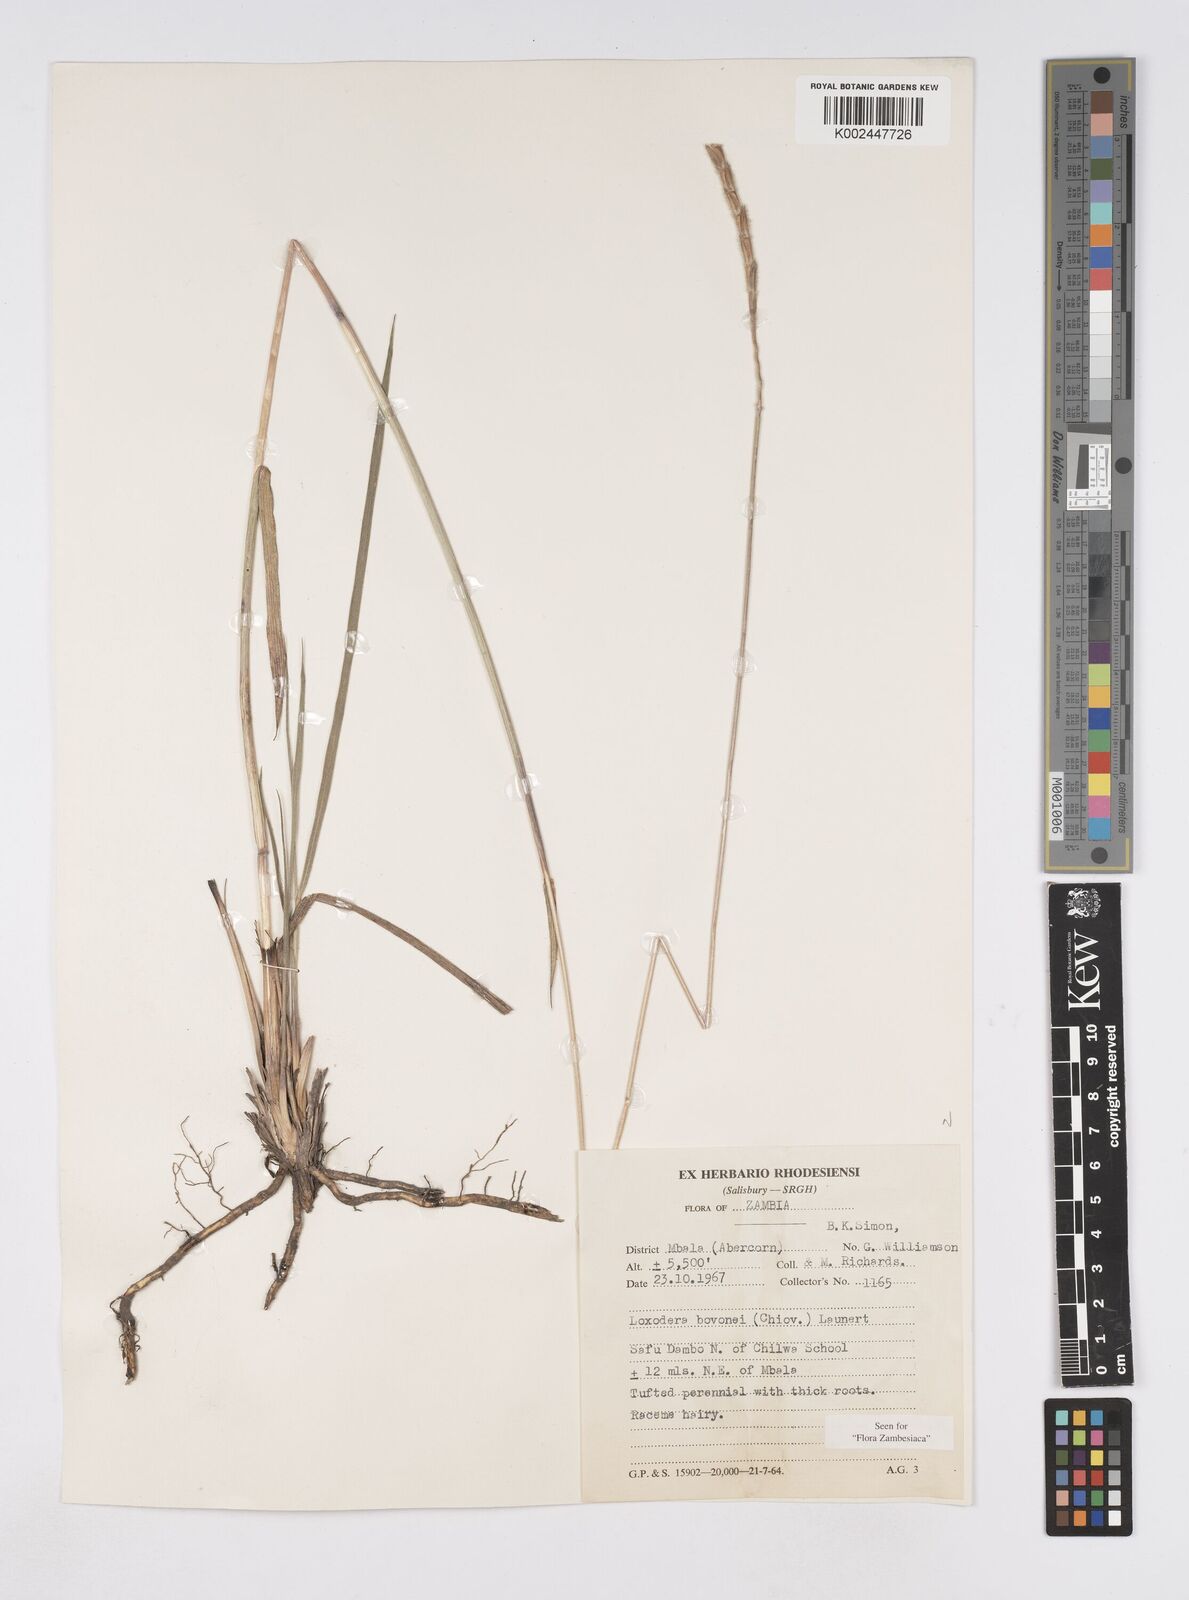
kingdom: Plantae
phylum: Tracheophyta
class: Liliopsida
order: Poales
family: Poaceae
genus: Loxodera
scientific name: Loxodera bovonei
